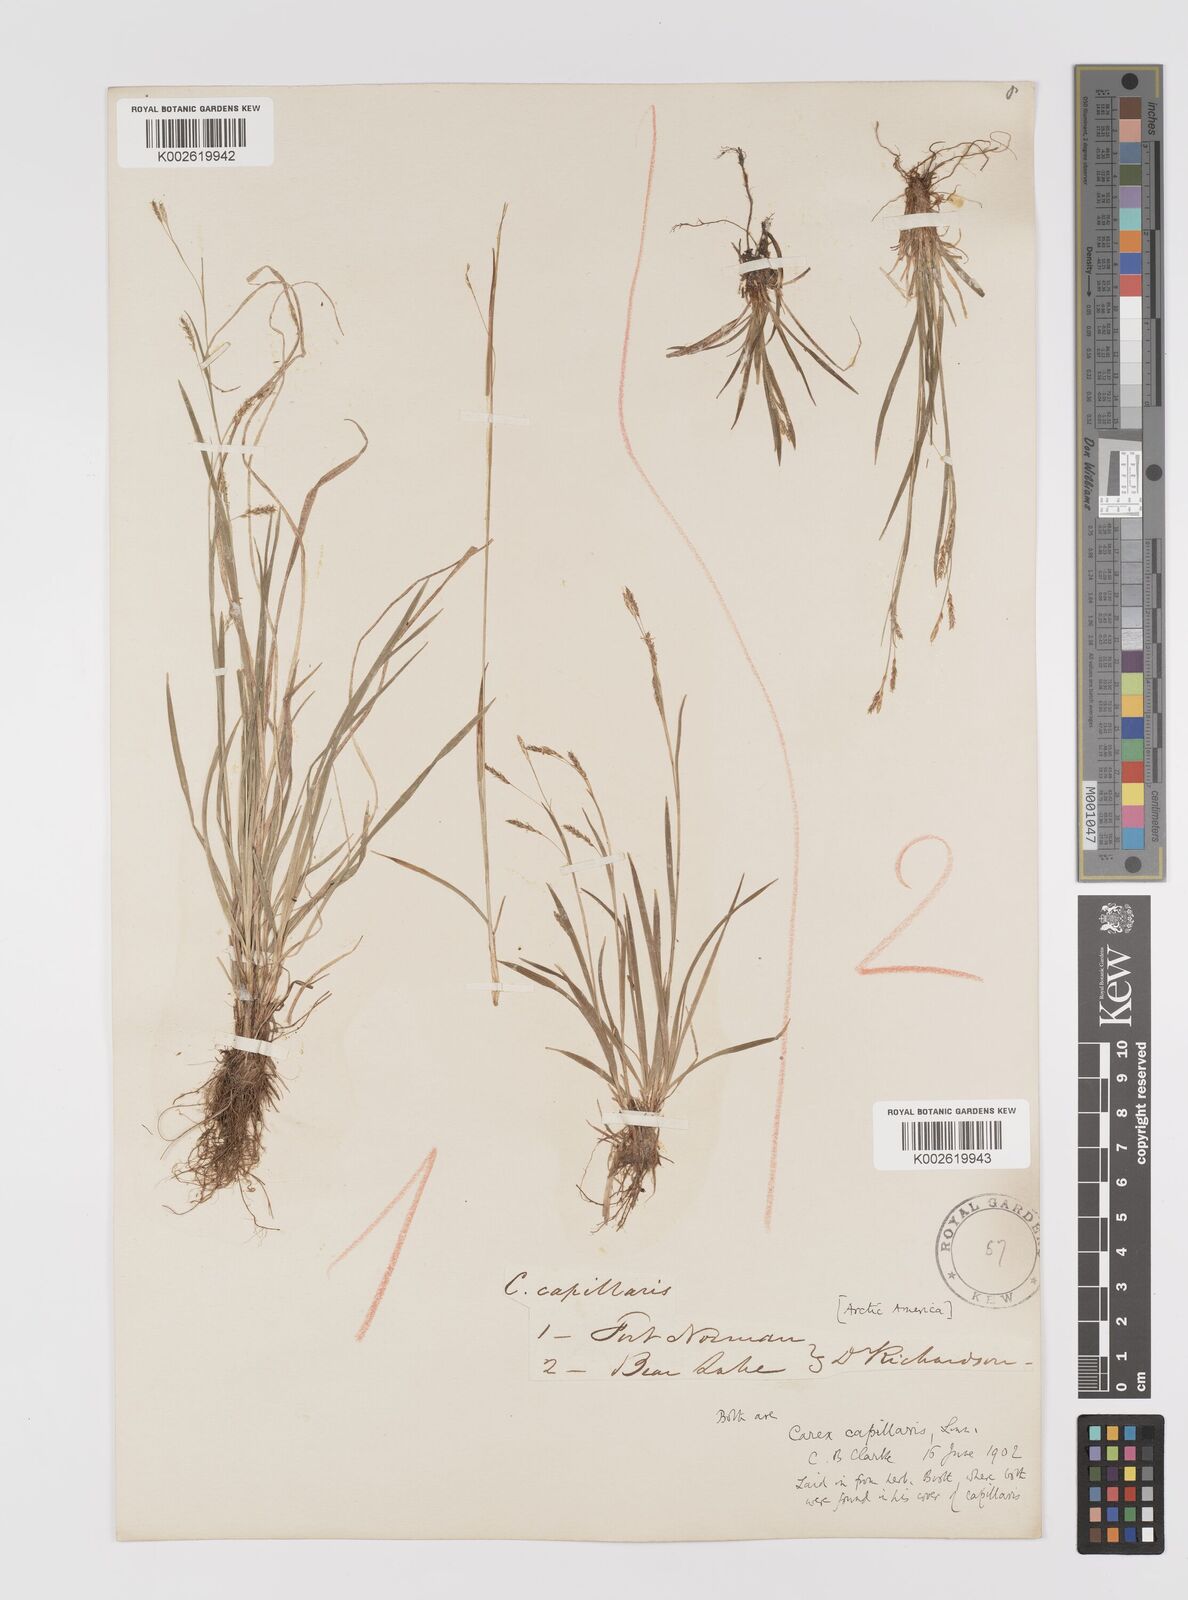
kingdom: Plantae
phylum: Tracheophyta
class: Liliopsida
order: Poales
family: Cyperaceae
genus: Carex
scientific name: Carex capillaris
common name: Hair sedge
